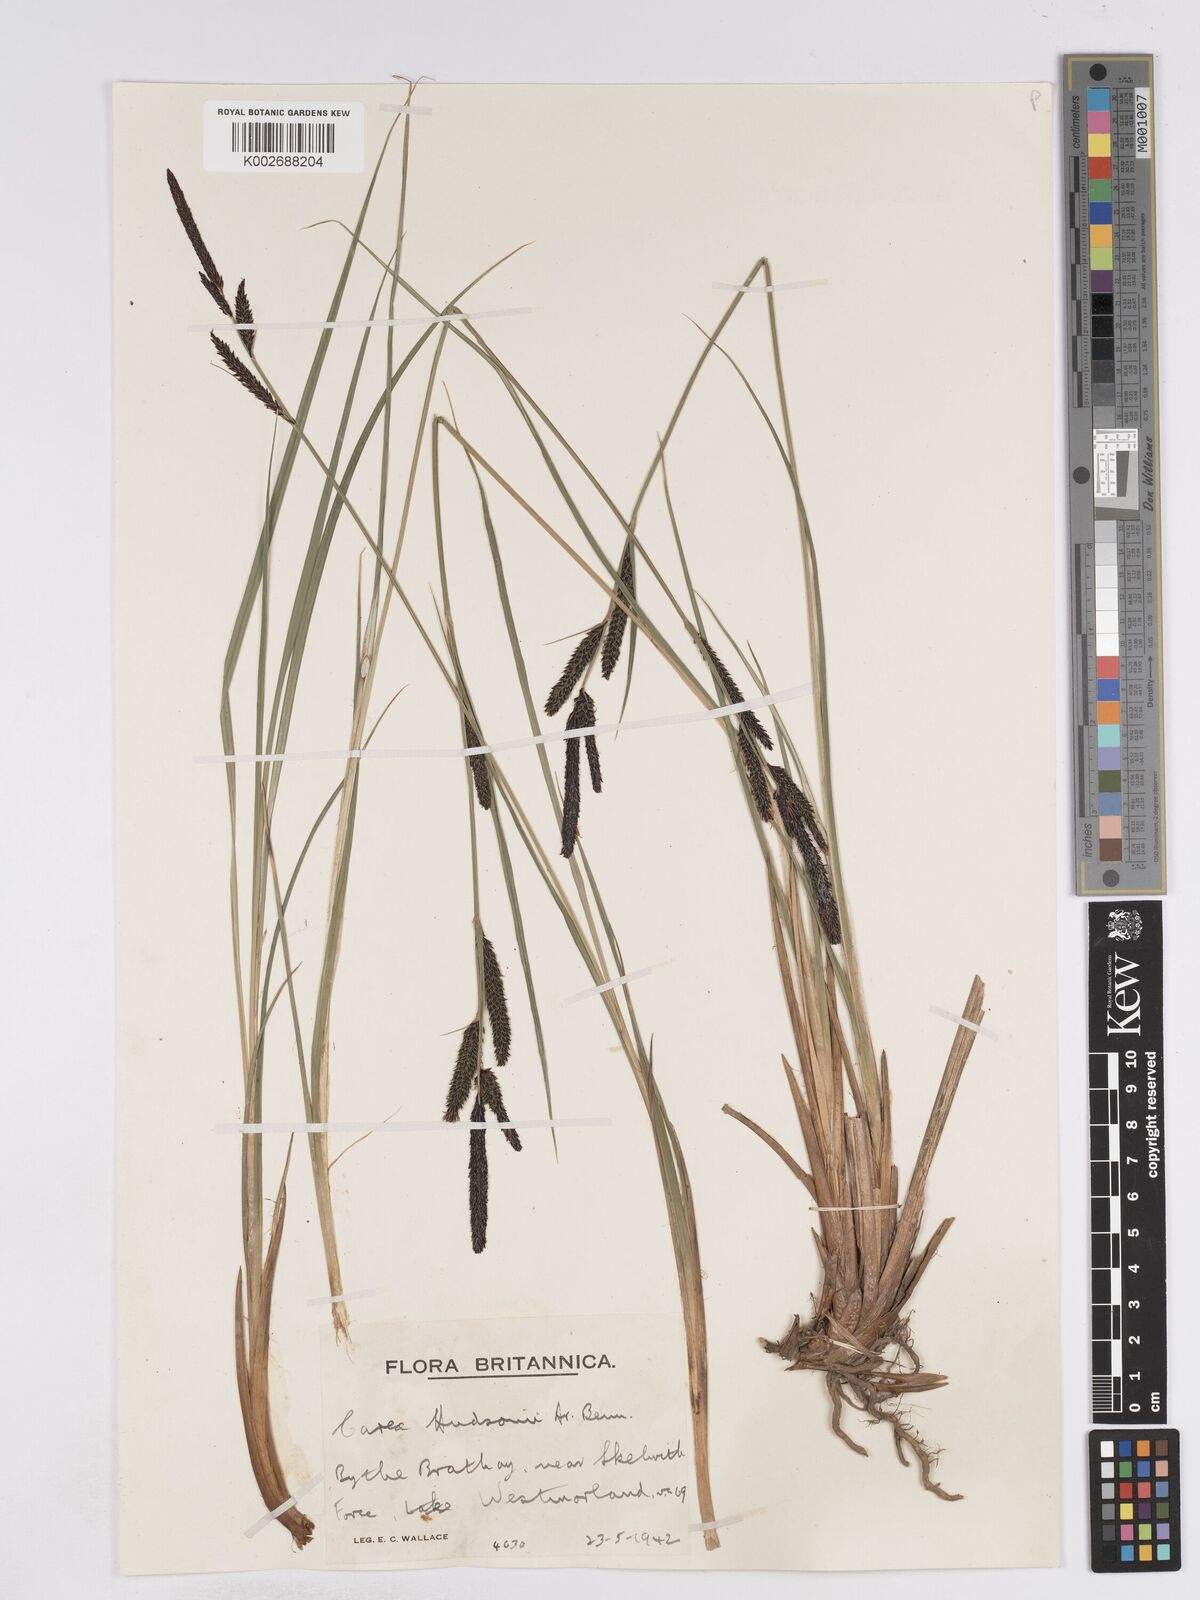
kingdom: Plantae
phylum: Tracheophyta
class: Liliopsida
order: Poales
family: Cyperaceae
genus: Carex
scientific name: Carex elata
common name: Tufted sedge
